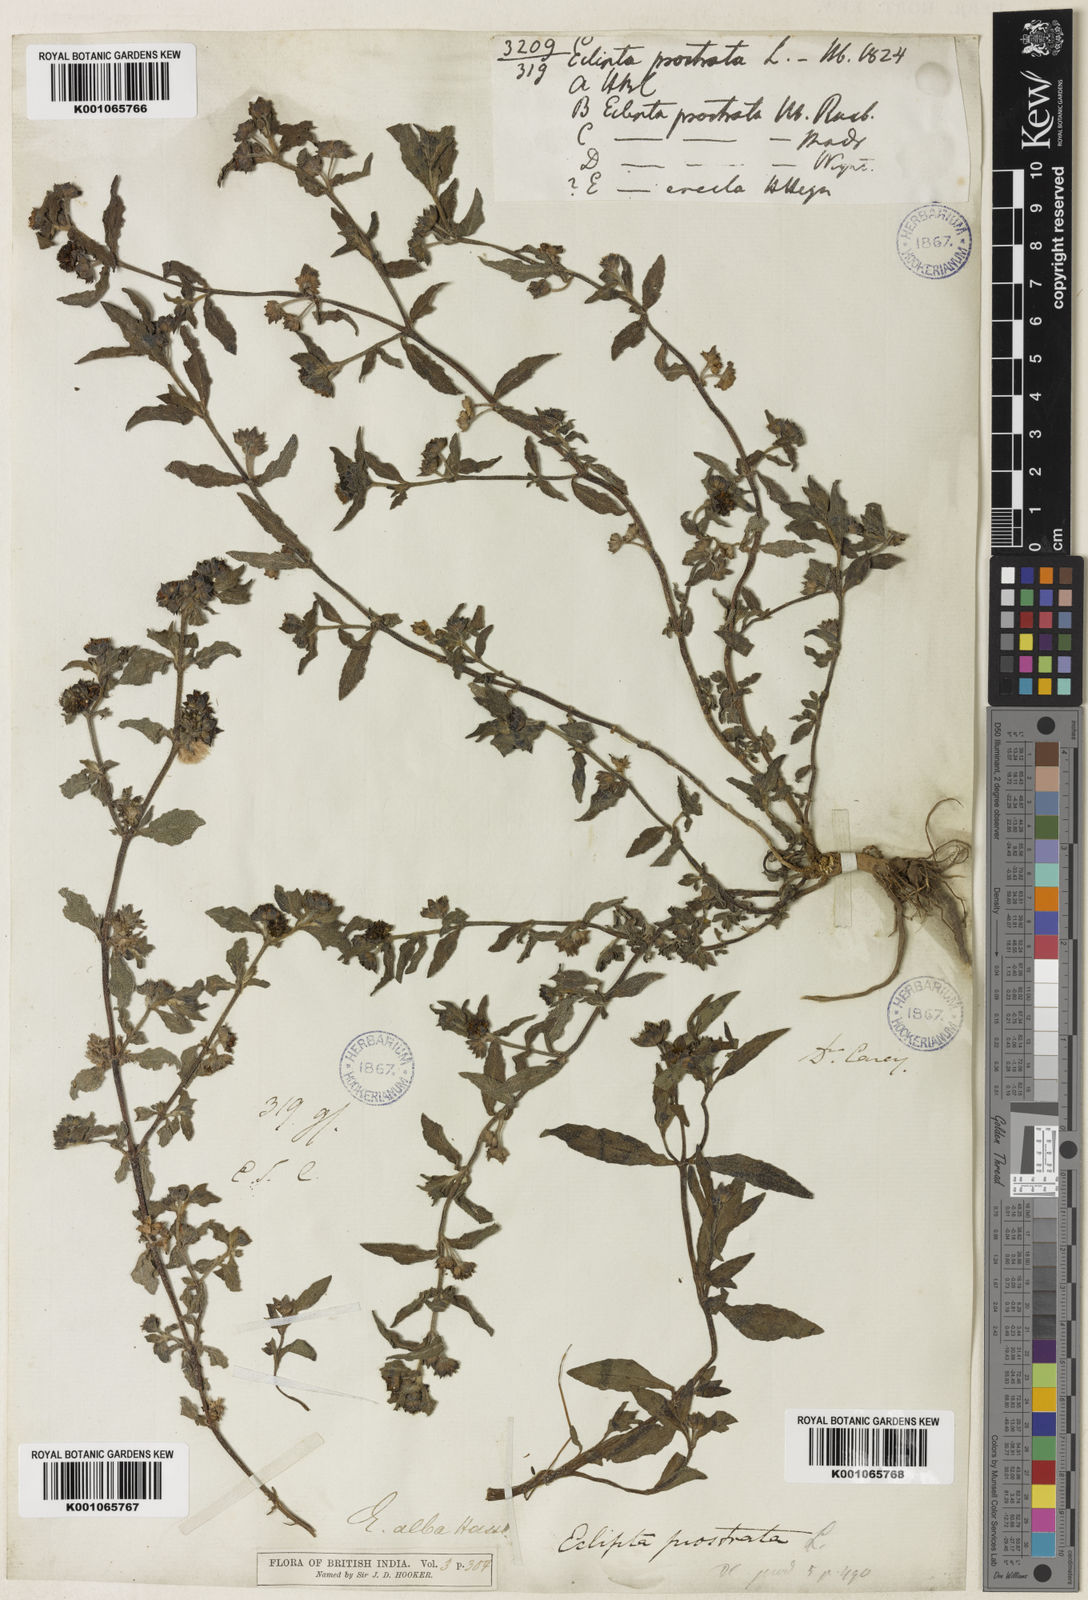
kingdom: Plantae
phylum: Tracheophyta
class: Magnoliopsida
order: Asterales
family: Asteraceae
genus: Eclipta
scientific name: Eclipta alba
